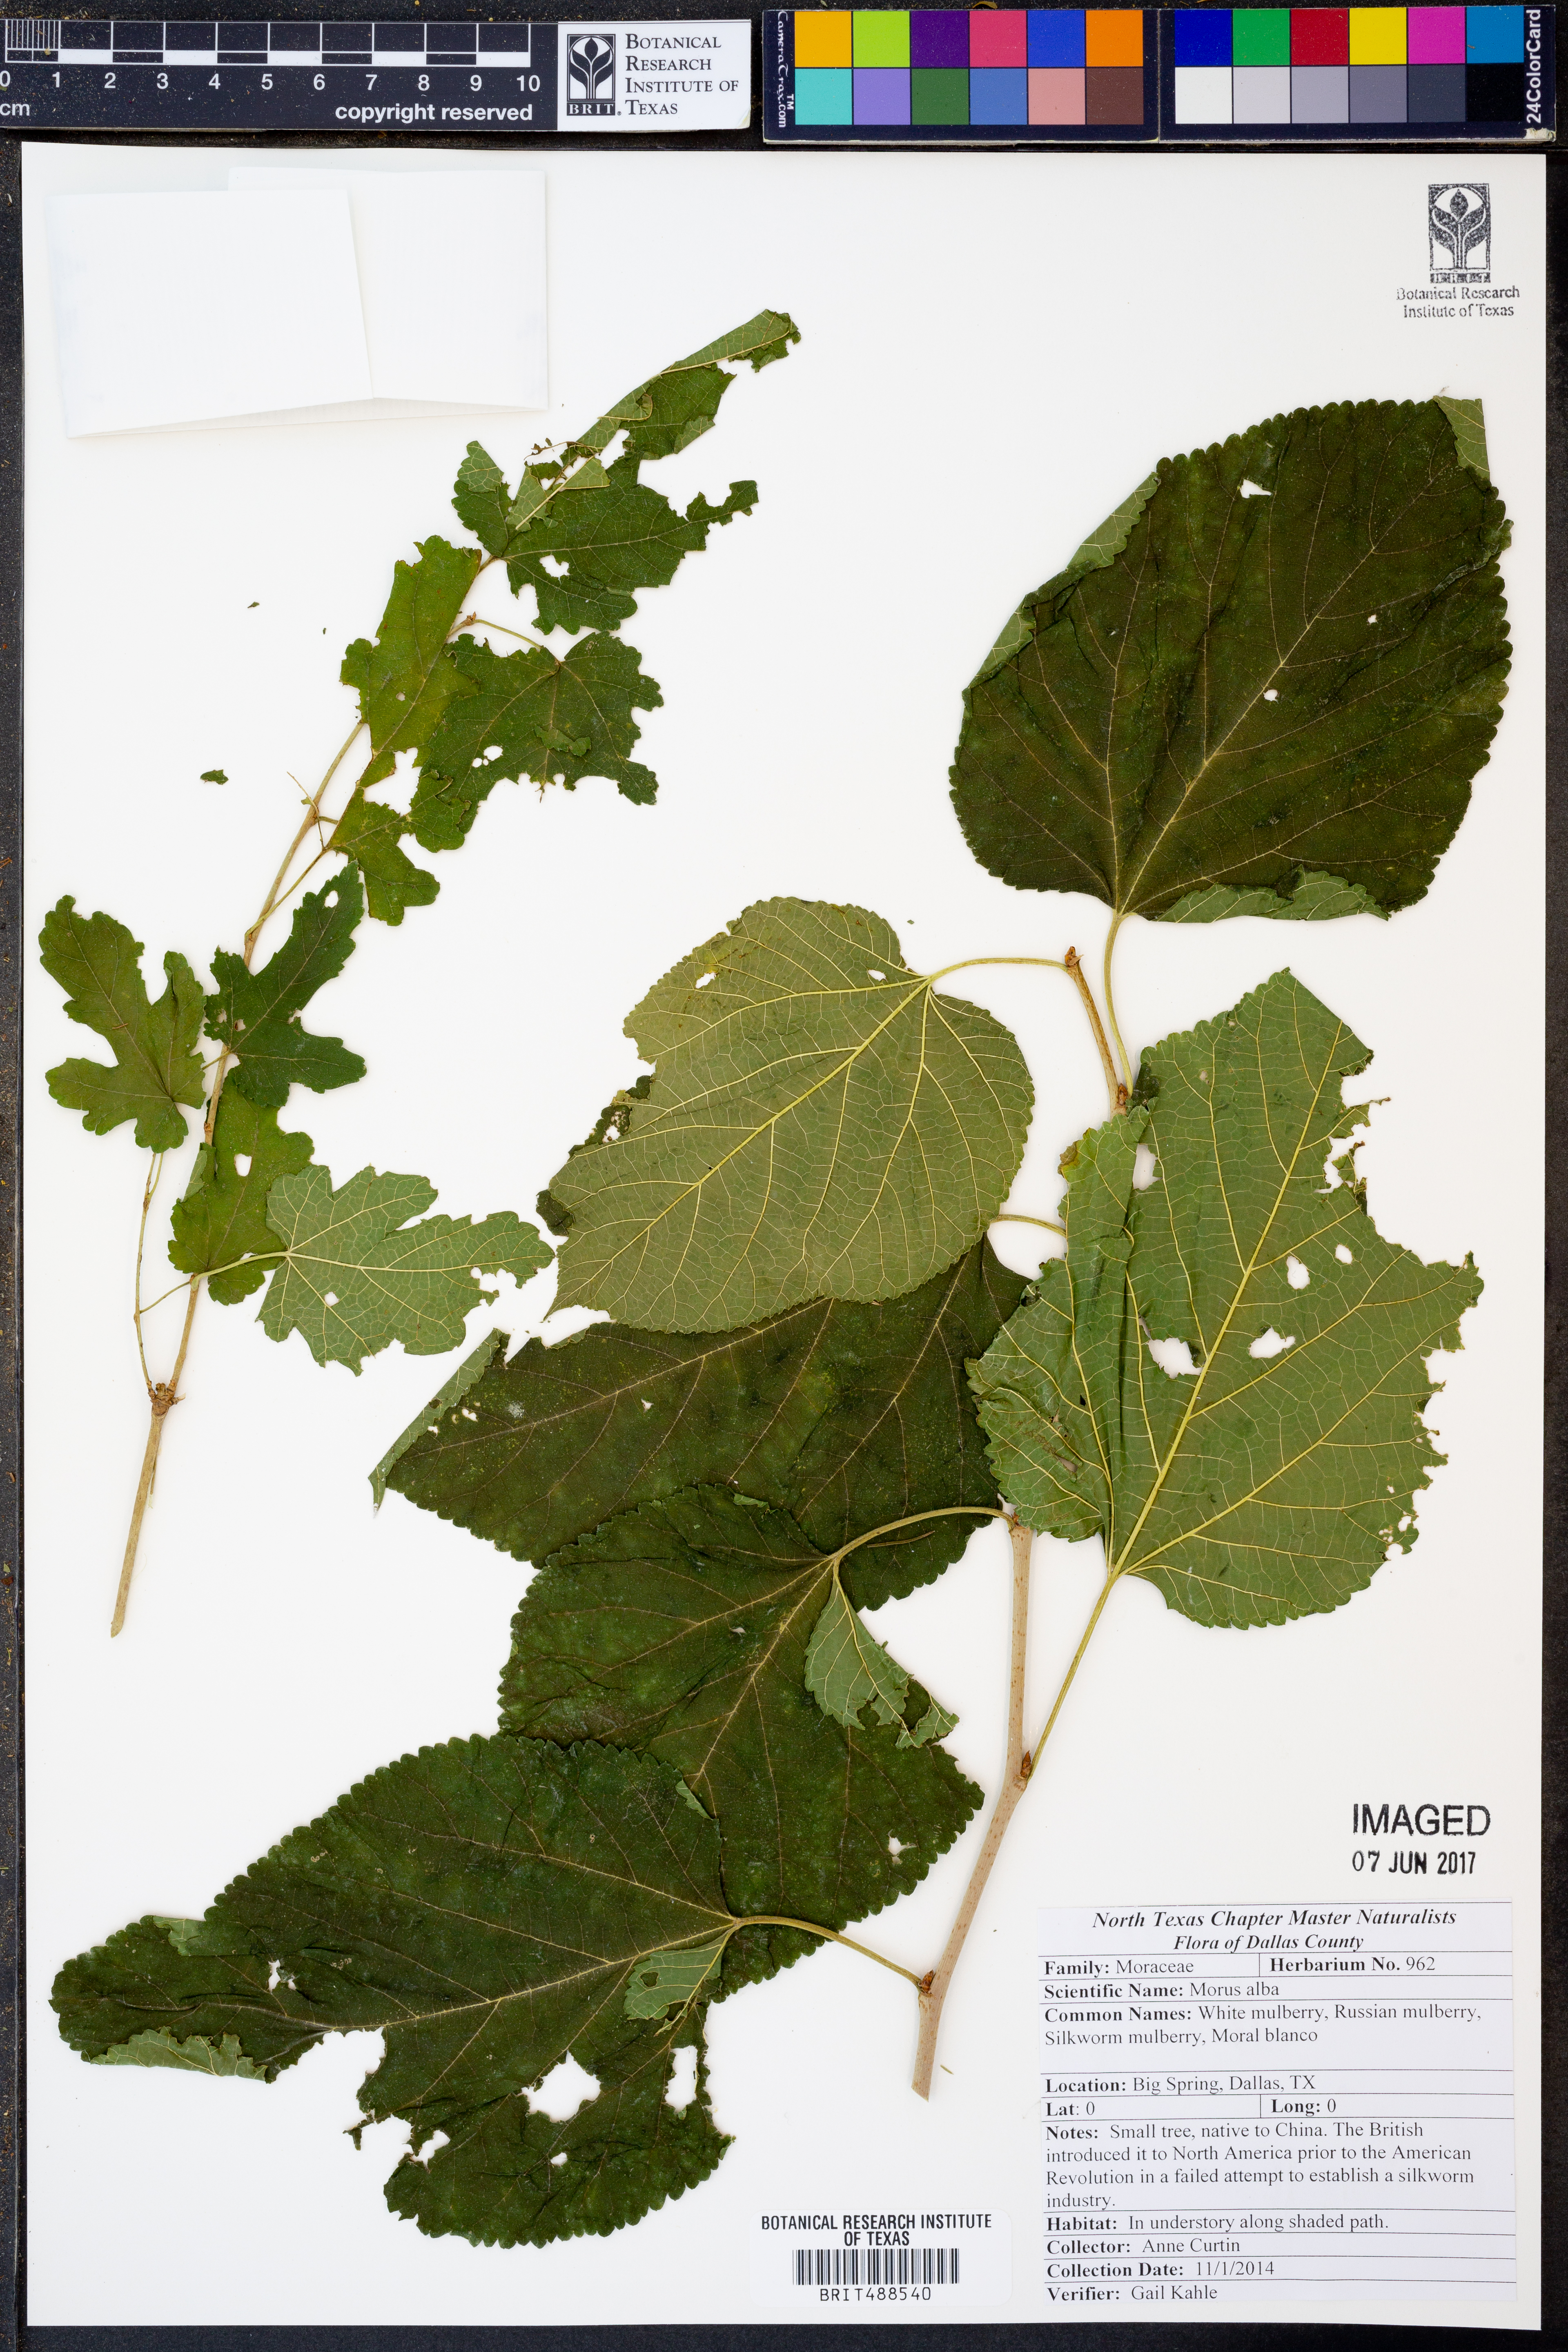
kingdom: Plantae
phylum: Tracheophyta
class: Magnoliopsida
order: Rosales
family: Moraceae
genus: Morus
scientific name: Morus alba
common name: White mulberry
